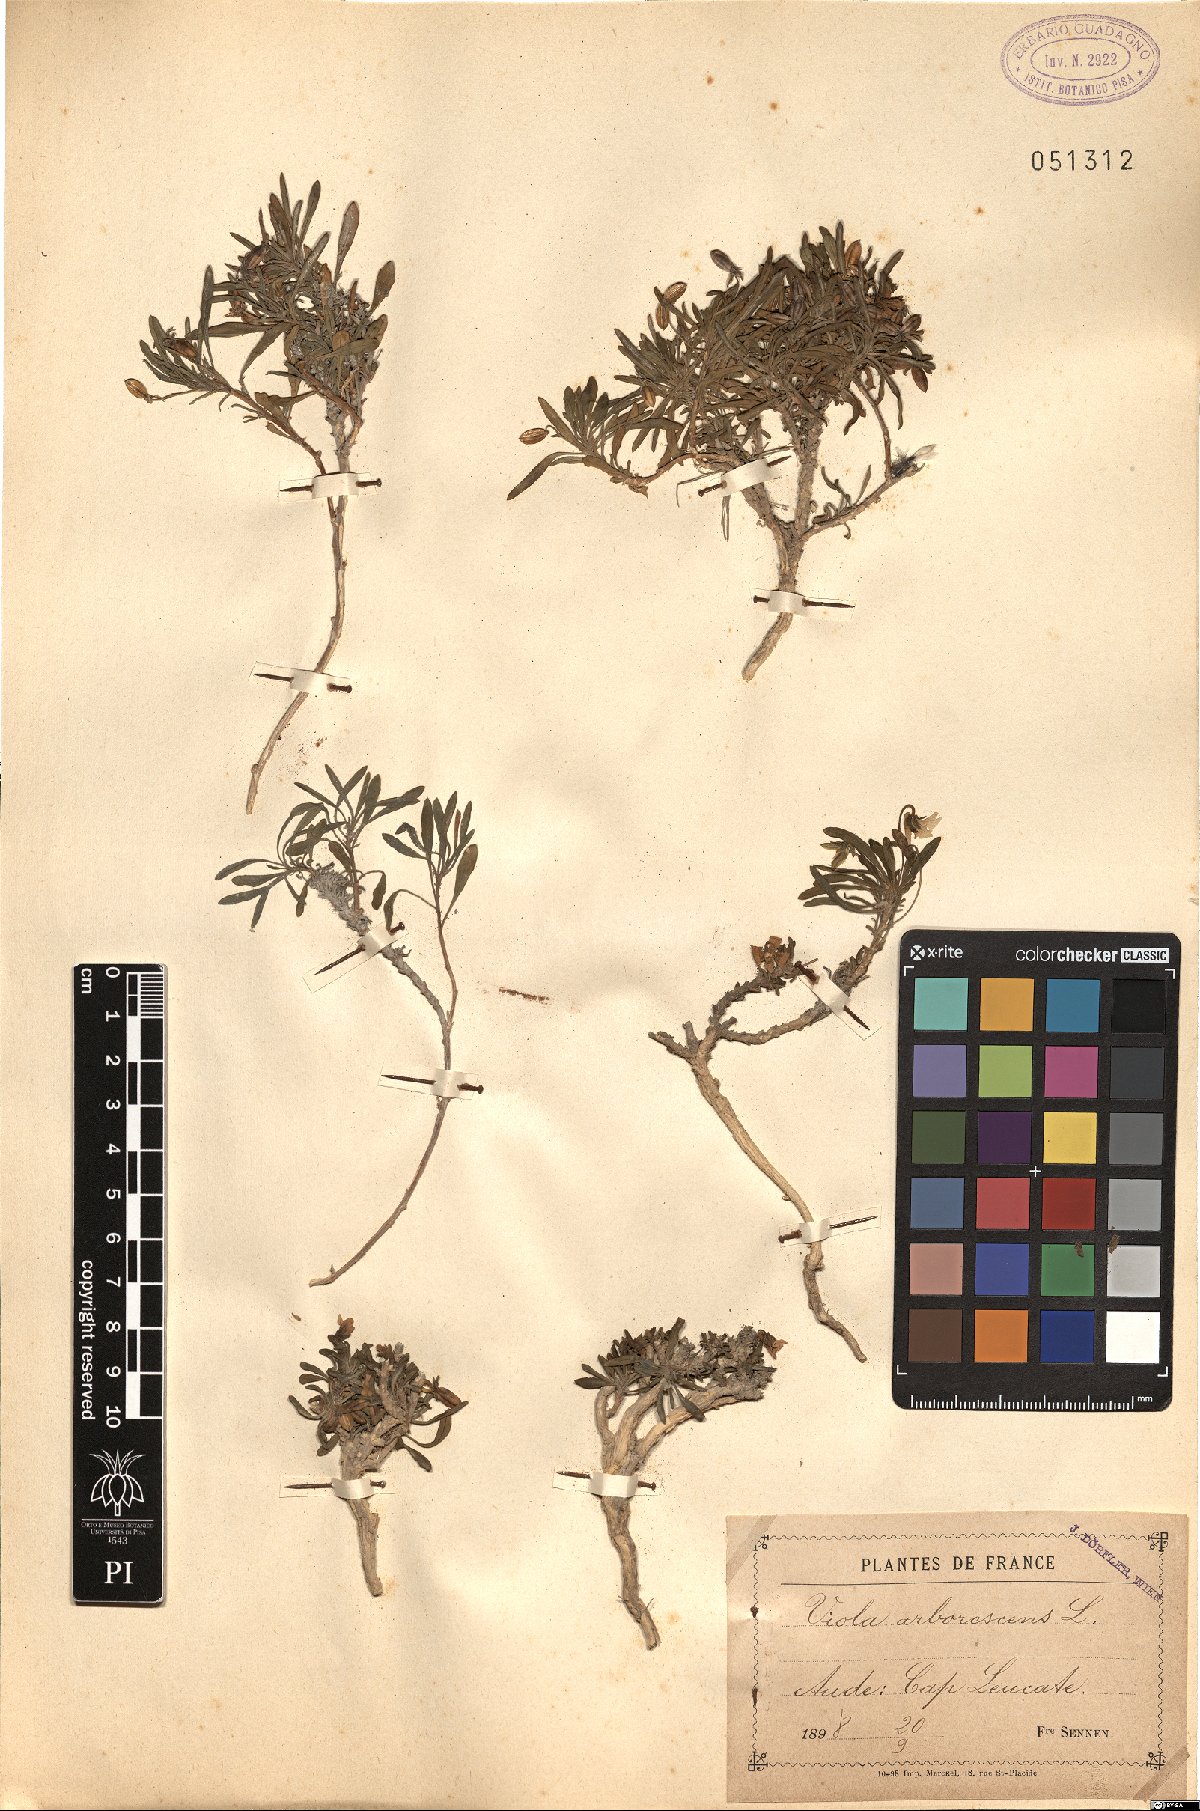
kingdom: Plantae
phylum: Tracheophyta
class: Magnoliopsida
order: Malpighiales
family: Violaceae
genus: Viola
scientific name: Viola arborescens
